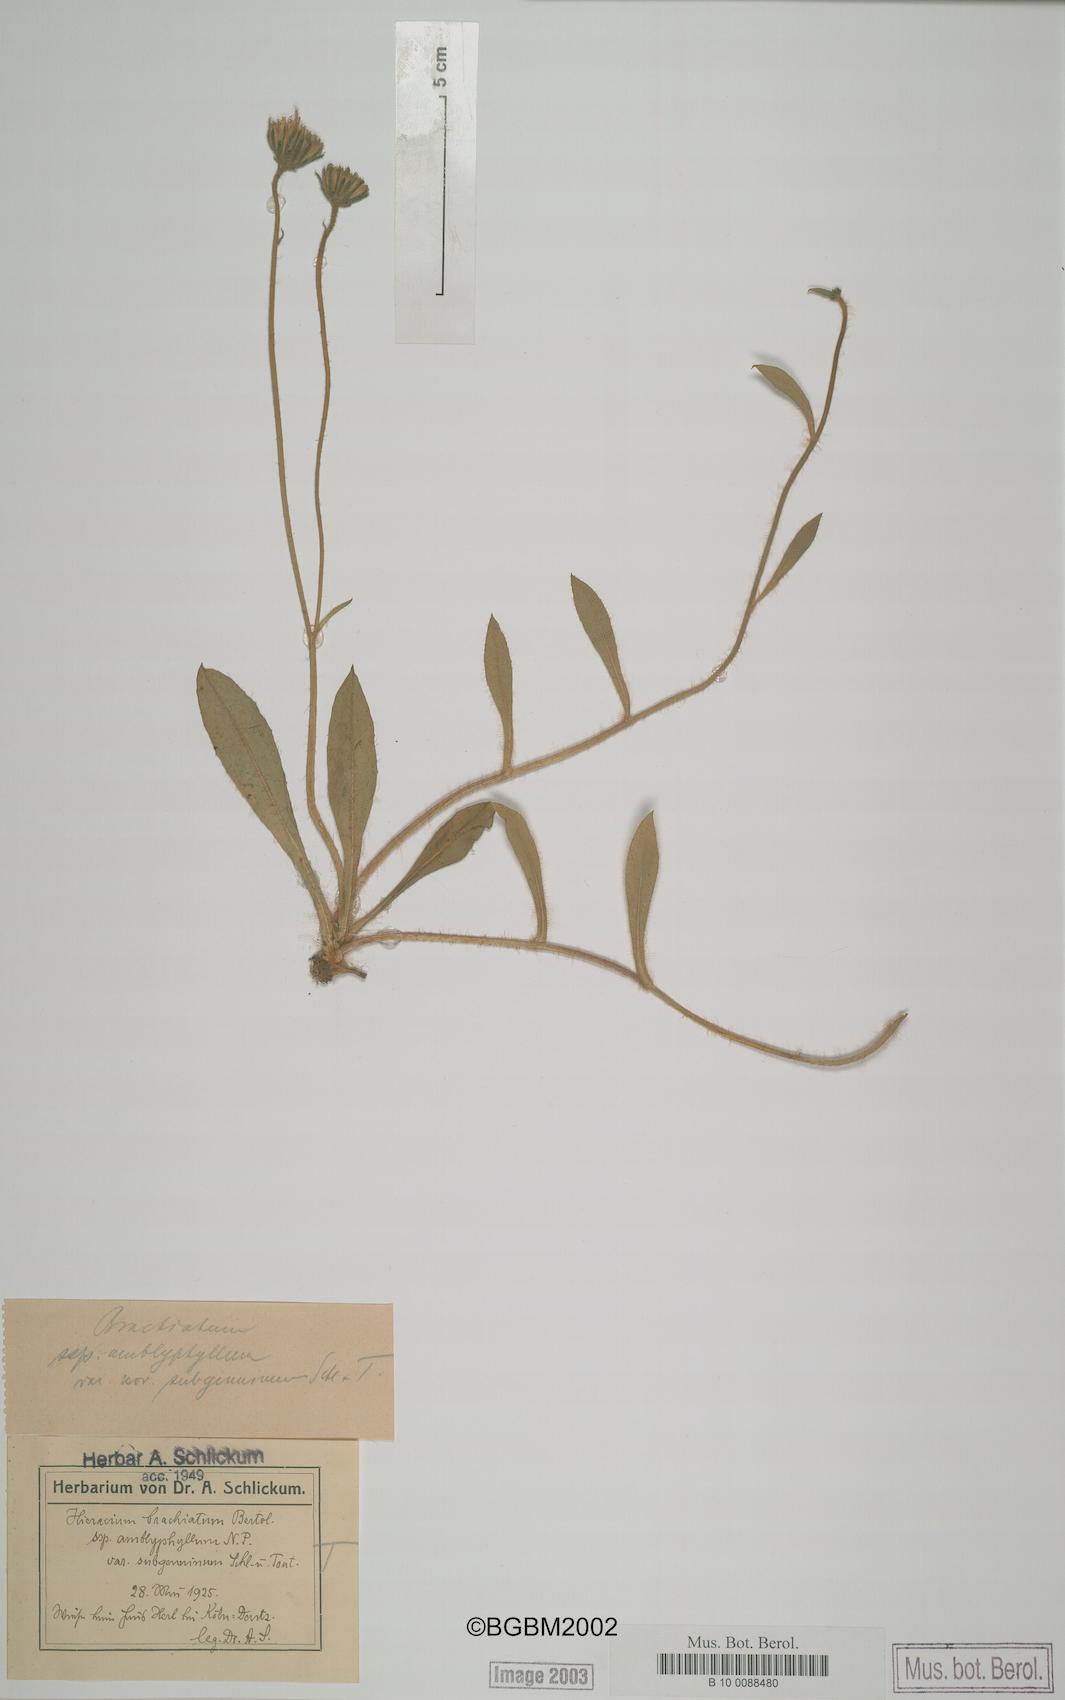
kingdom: Plantae
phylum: Tracheophyta
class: Magnoliopsida
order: Asterales
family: Asteraceae
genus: Pilosella
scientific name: Pilosella acutifolia
